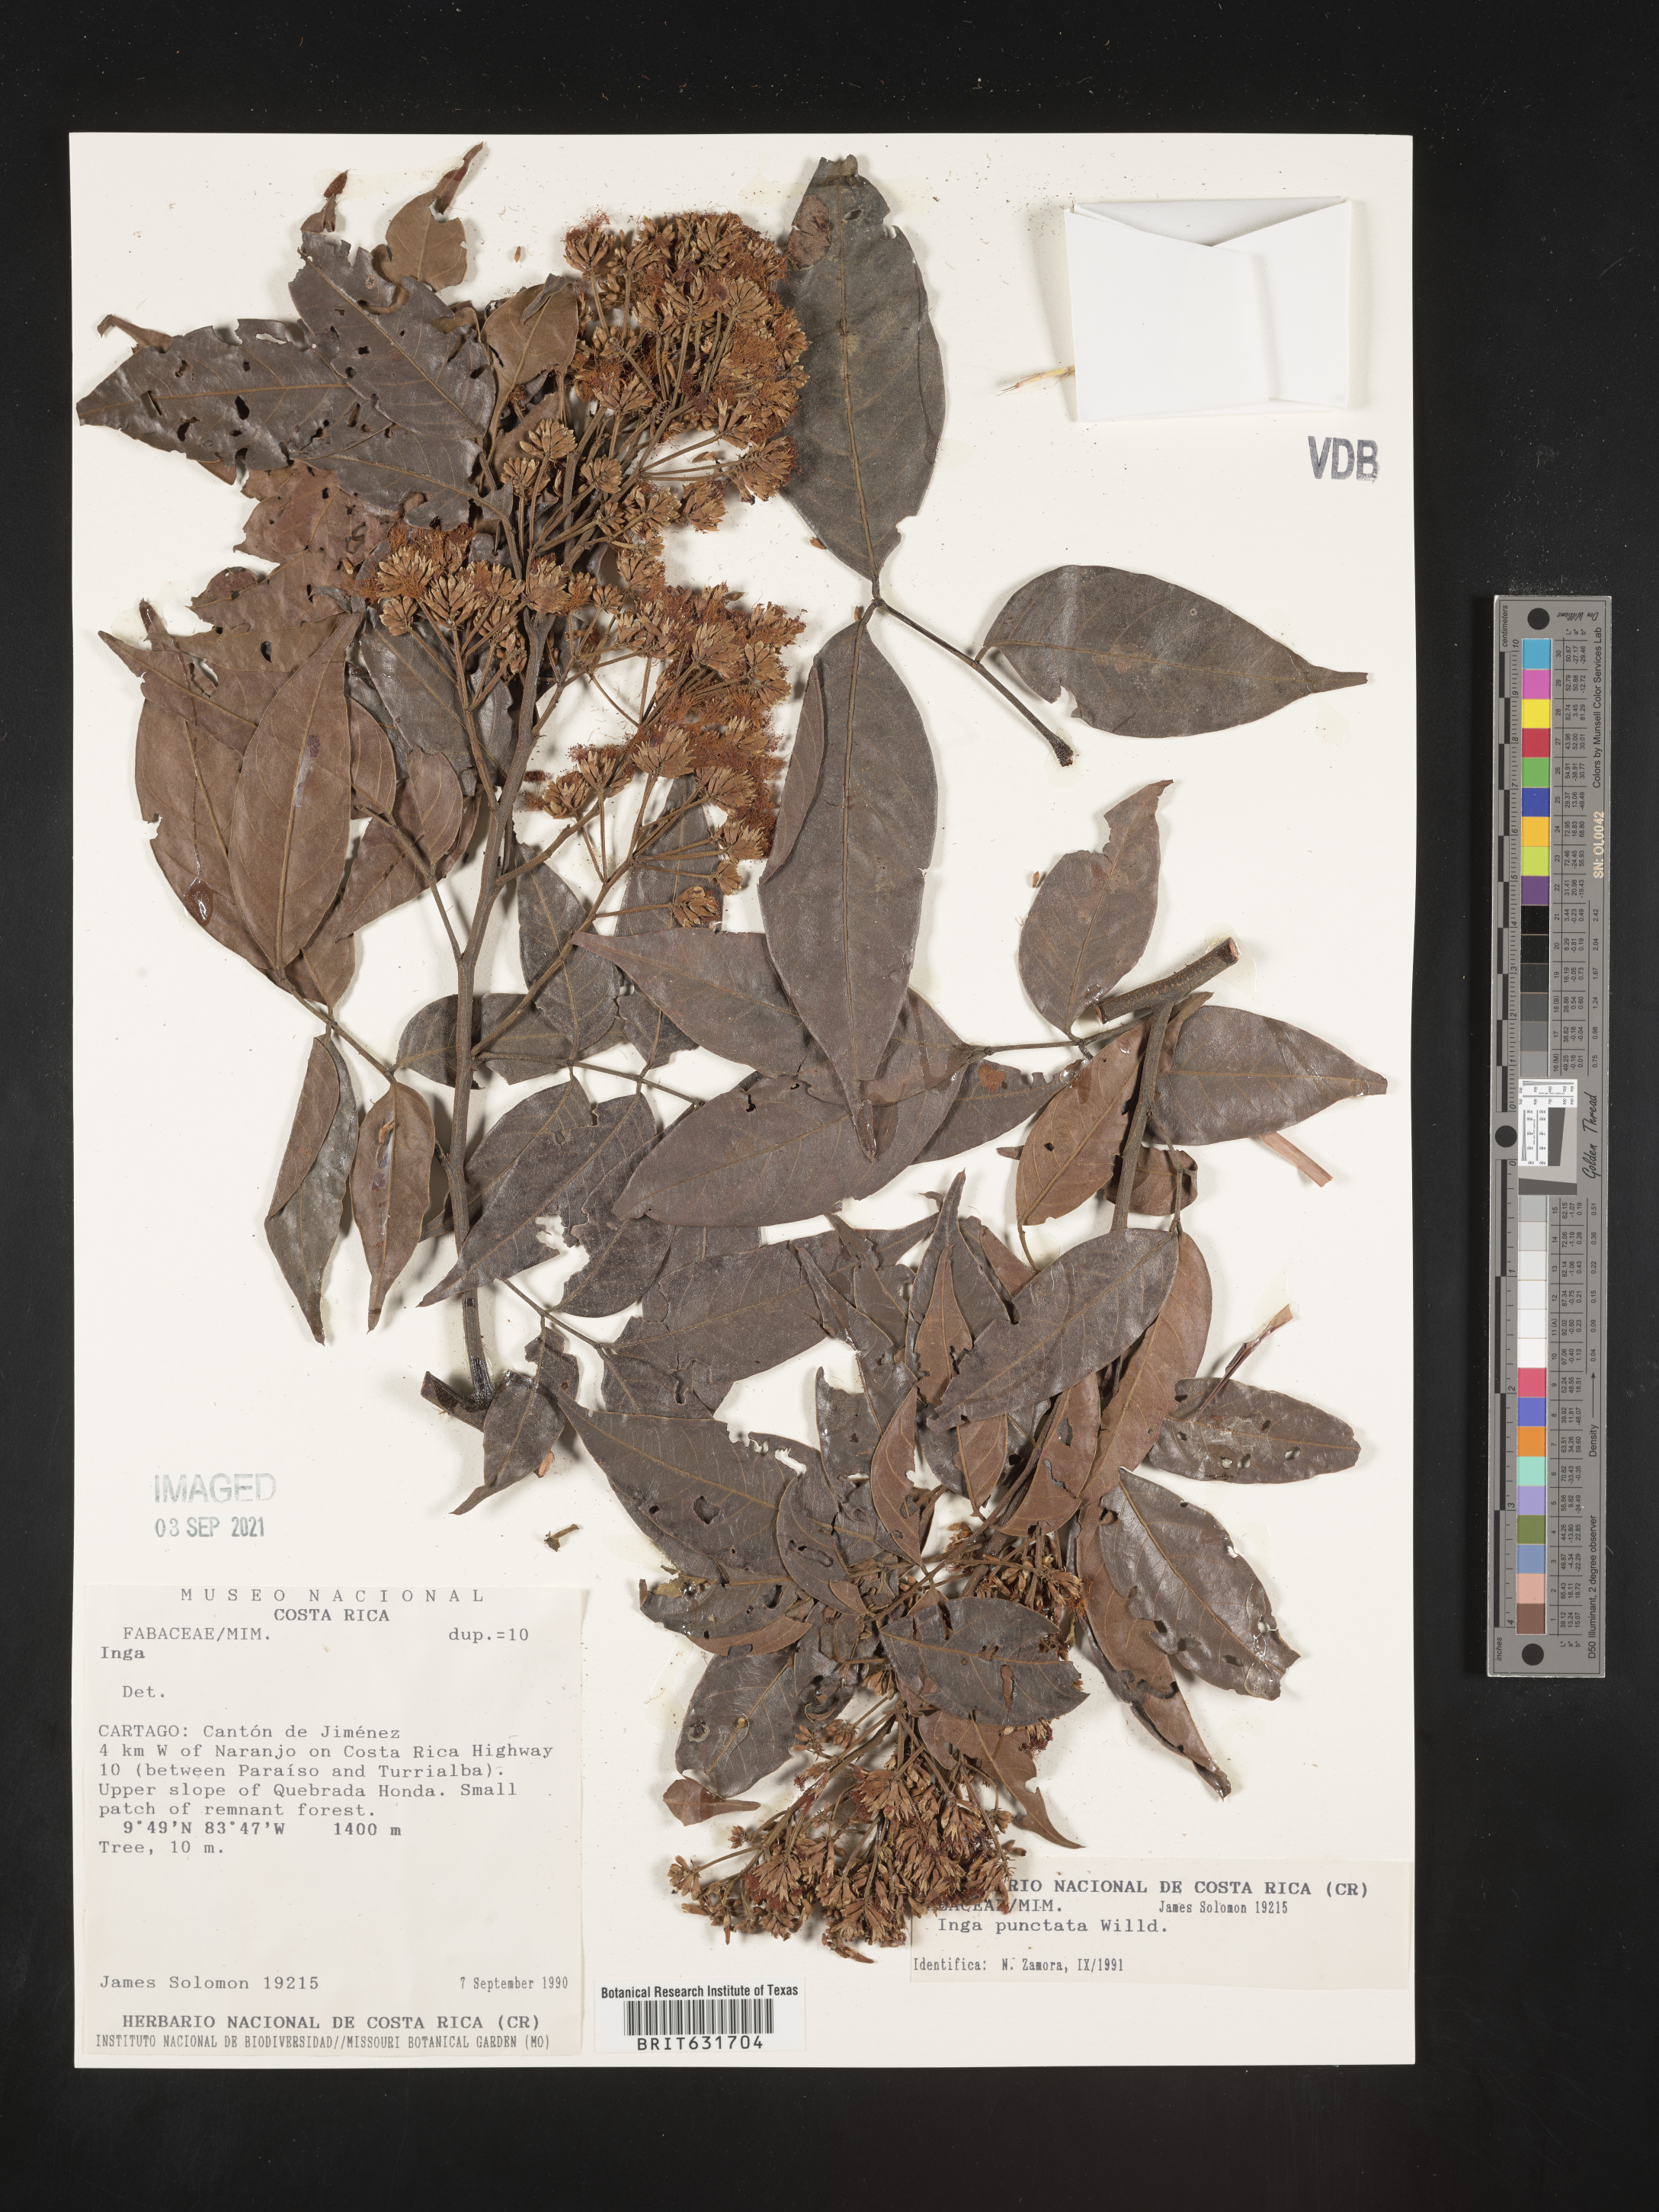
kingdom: Plantae
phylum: Tracheophyta
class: Magnoliopsida
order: Fabales
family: Fabaceae
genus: Inga
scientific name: Inga
